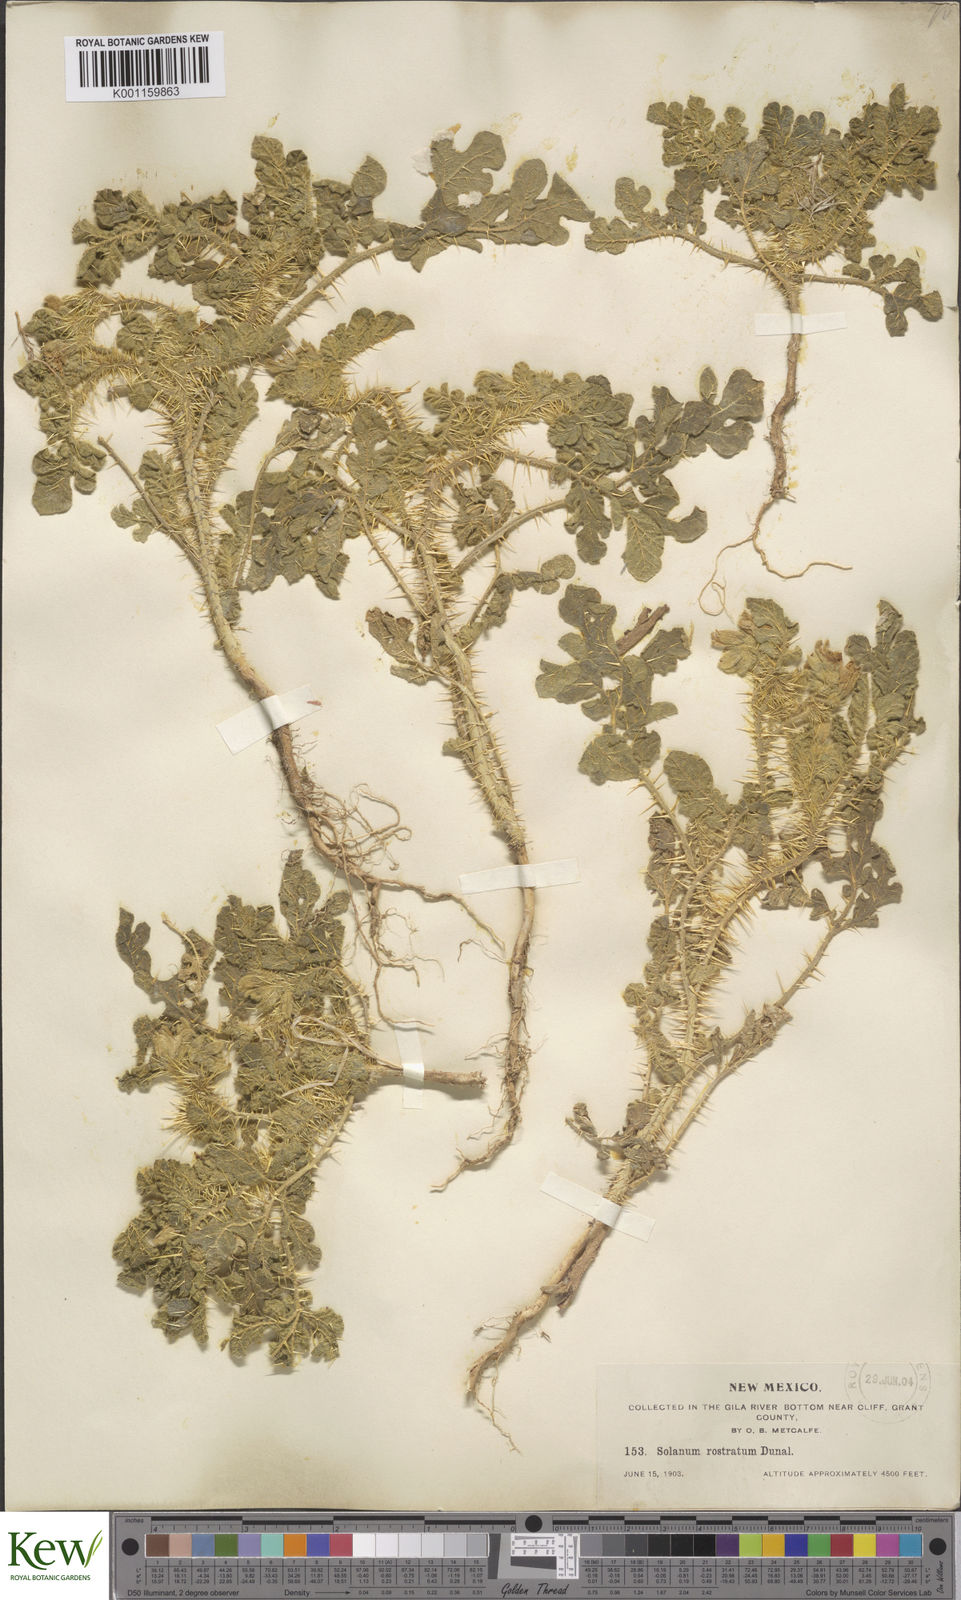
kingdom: Plantae
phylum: Tracheophyta
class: Magnoliopsida
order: Solanales
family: Solanaceae
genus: Solanum
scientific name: Solanum angustifolium
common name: Buffalobur nightshade
